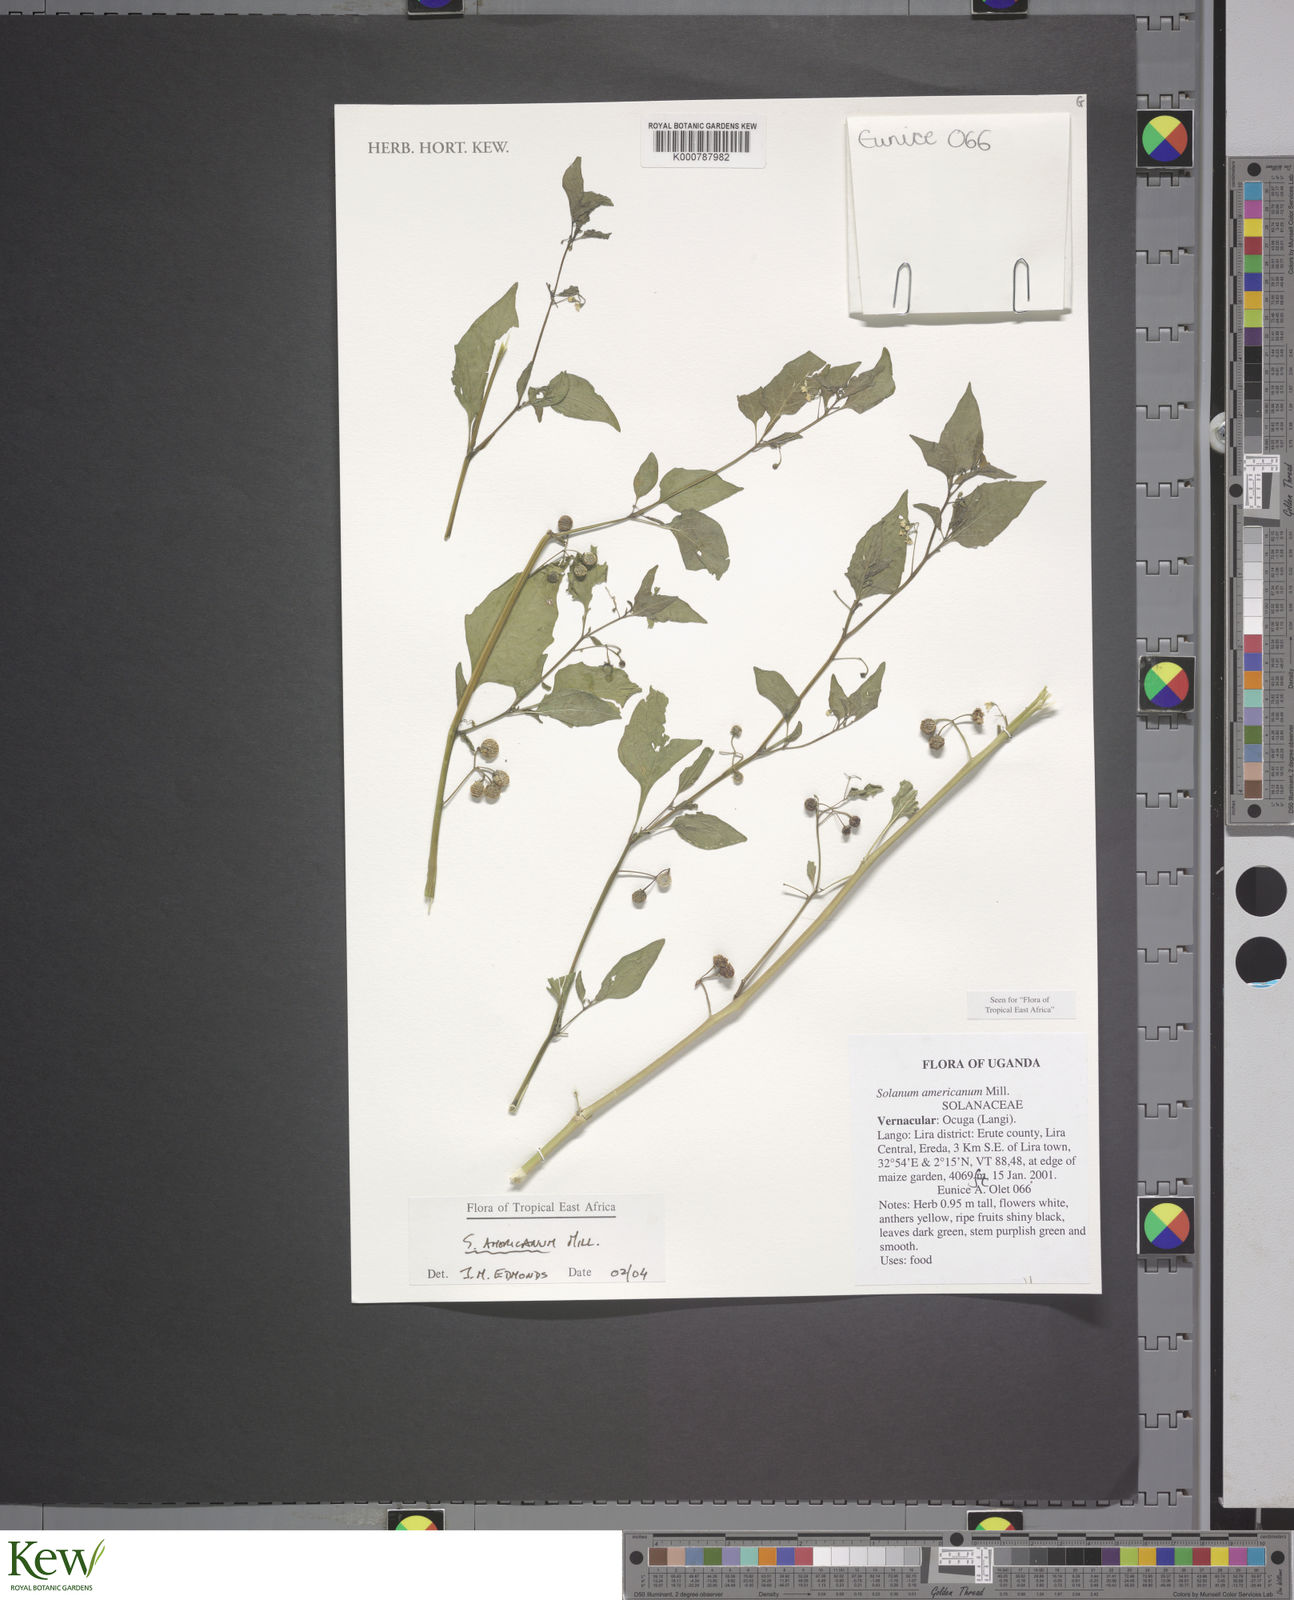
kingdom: Plantae
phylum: Tracheophyta
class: Magnoliopsida
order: Solanales
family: Solanaceae
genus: Solanum
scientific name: Solanum americanum
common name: American black nightshade
